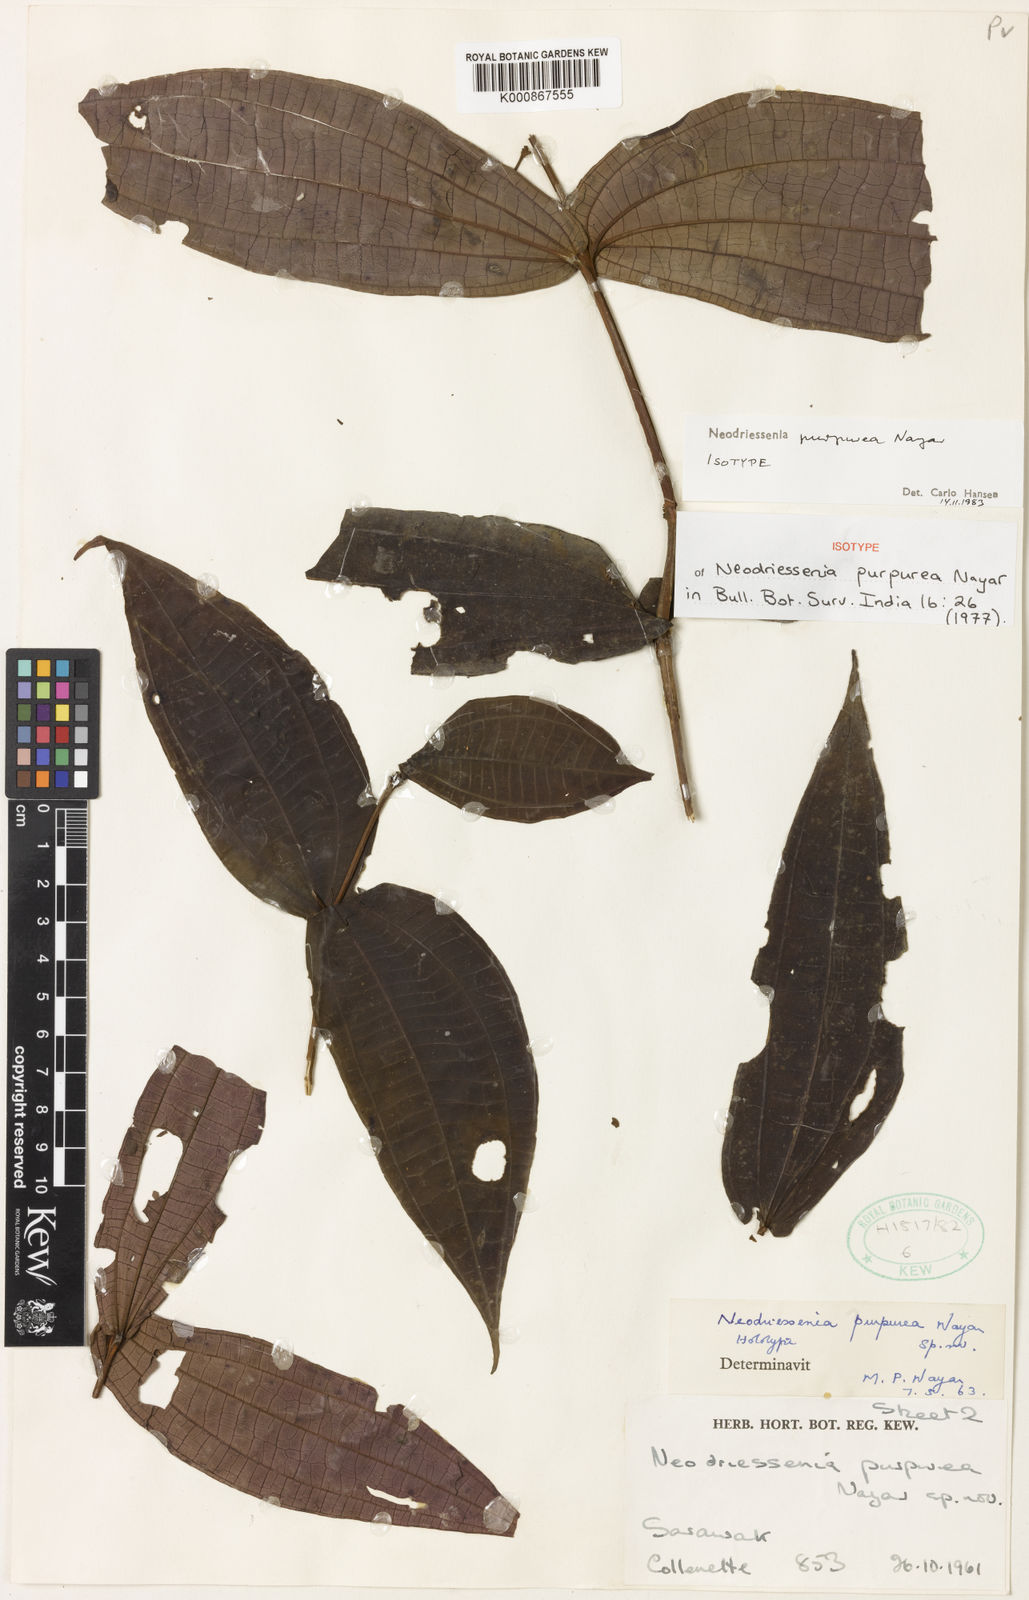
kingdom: Plantae
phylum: Tracheophyta
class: Magnoliopsida
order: Myrtales
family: Melastomataceae
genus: Neodriessenia
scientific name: Neodriessenia purpurea
